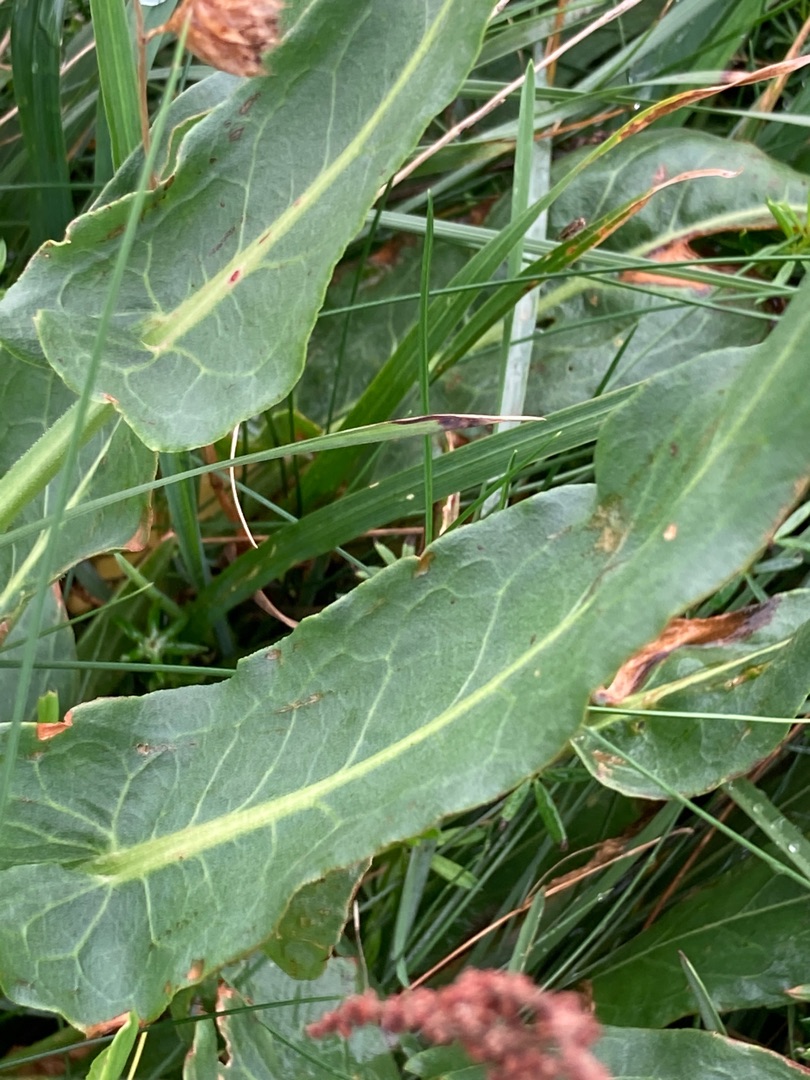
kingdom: Plantae
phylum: Tracheophyta
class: Magnoliopsida
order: Caryophyllales
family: Polygonaceae
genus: Rumex
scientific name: Rumex thyrsiflorus
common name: Dusk-syre
